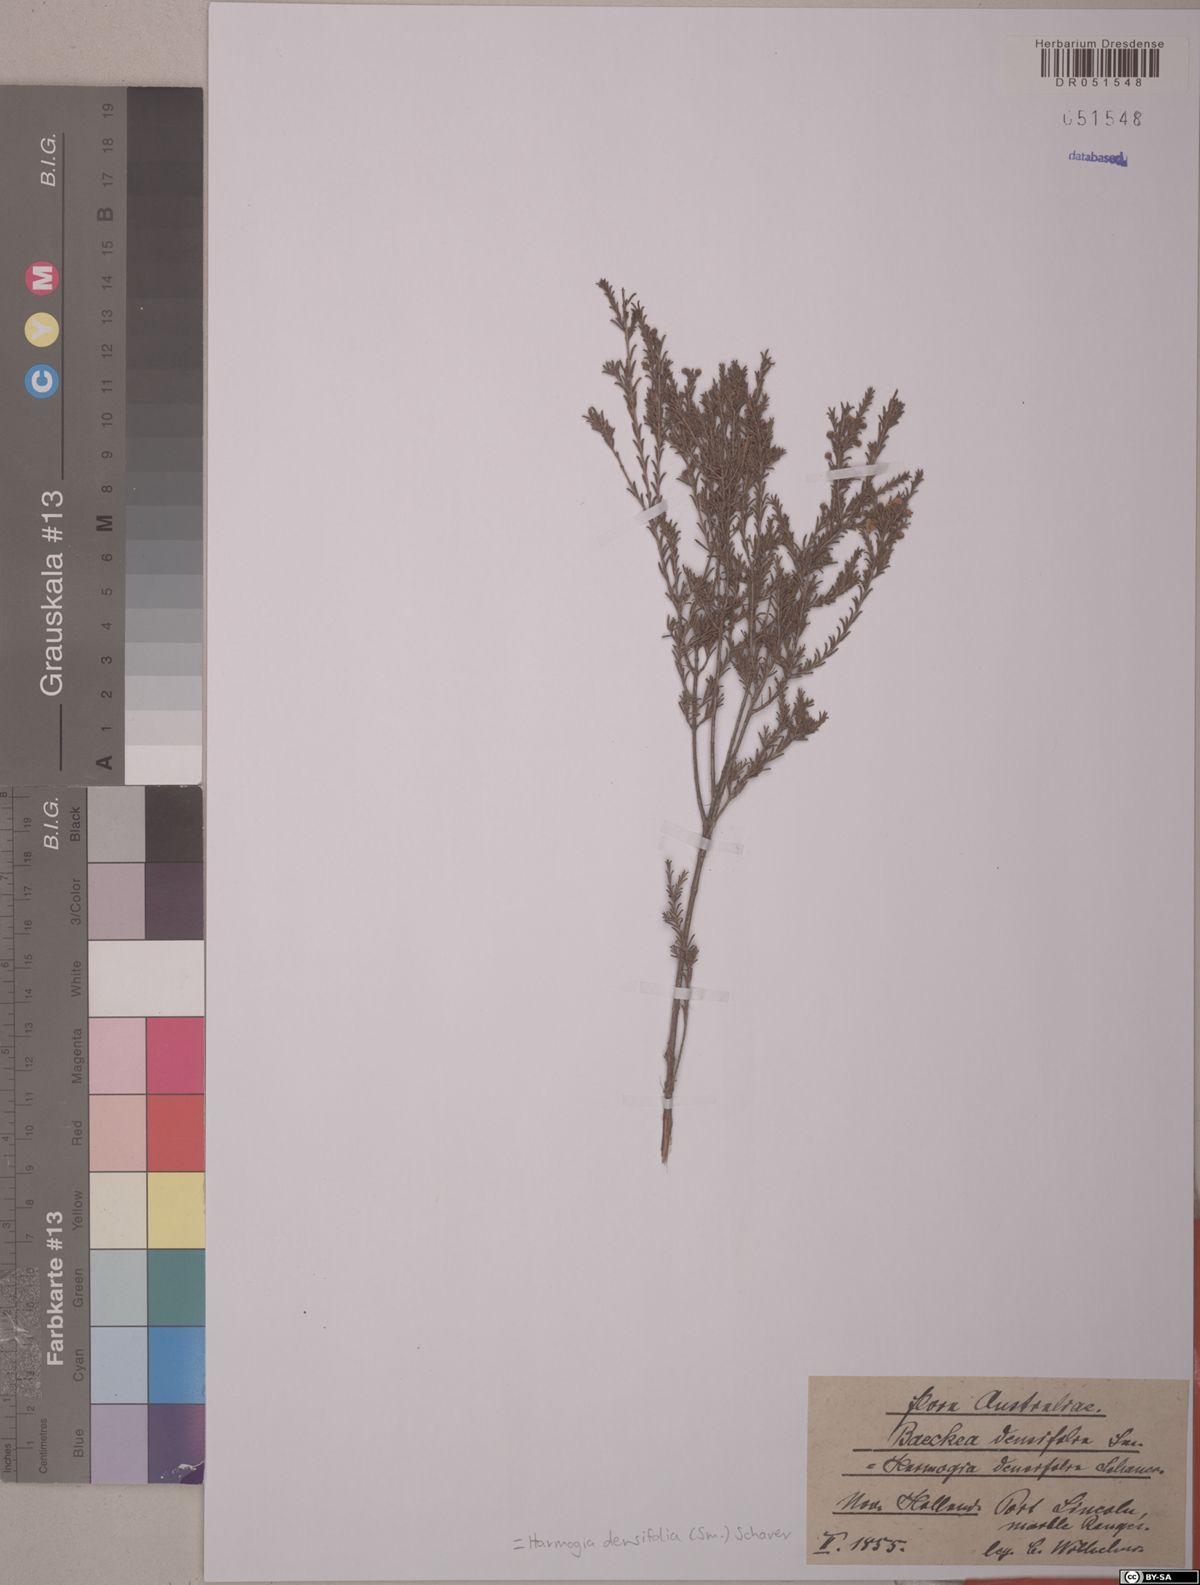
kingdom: Plantae
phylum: Tracheophyta
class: Magnoliopsida
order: Myrtales
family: Myrtaceae
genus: Harmogia
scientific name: Harmogia densifolia
